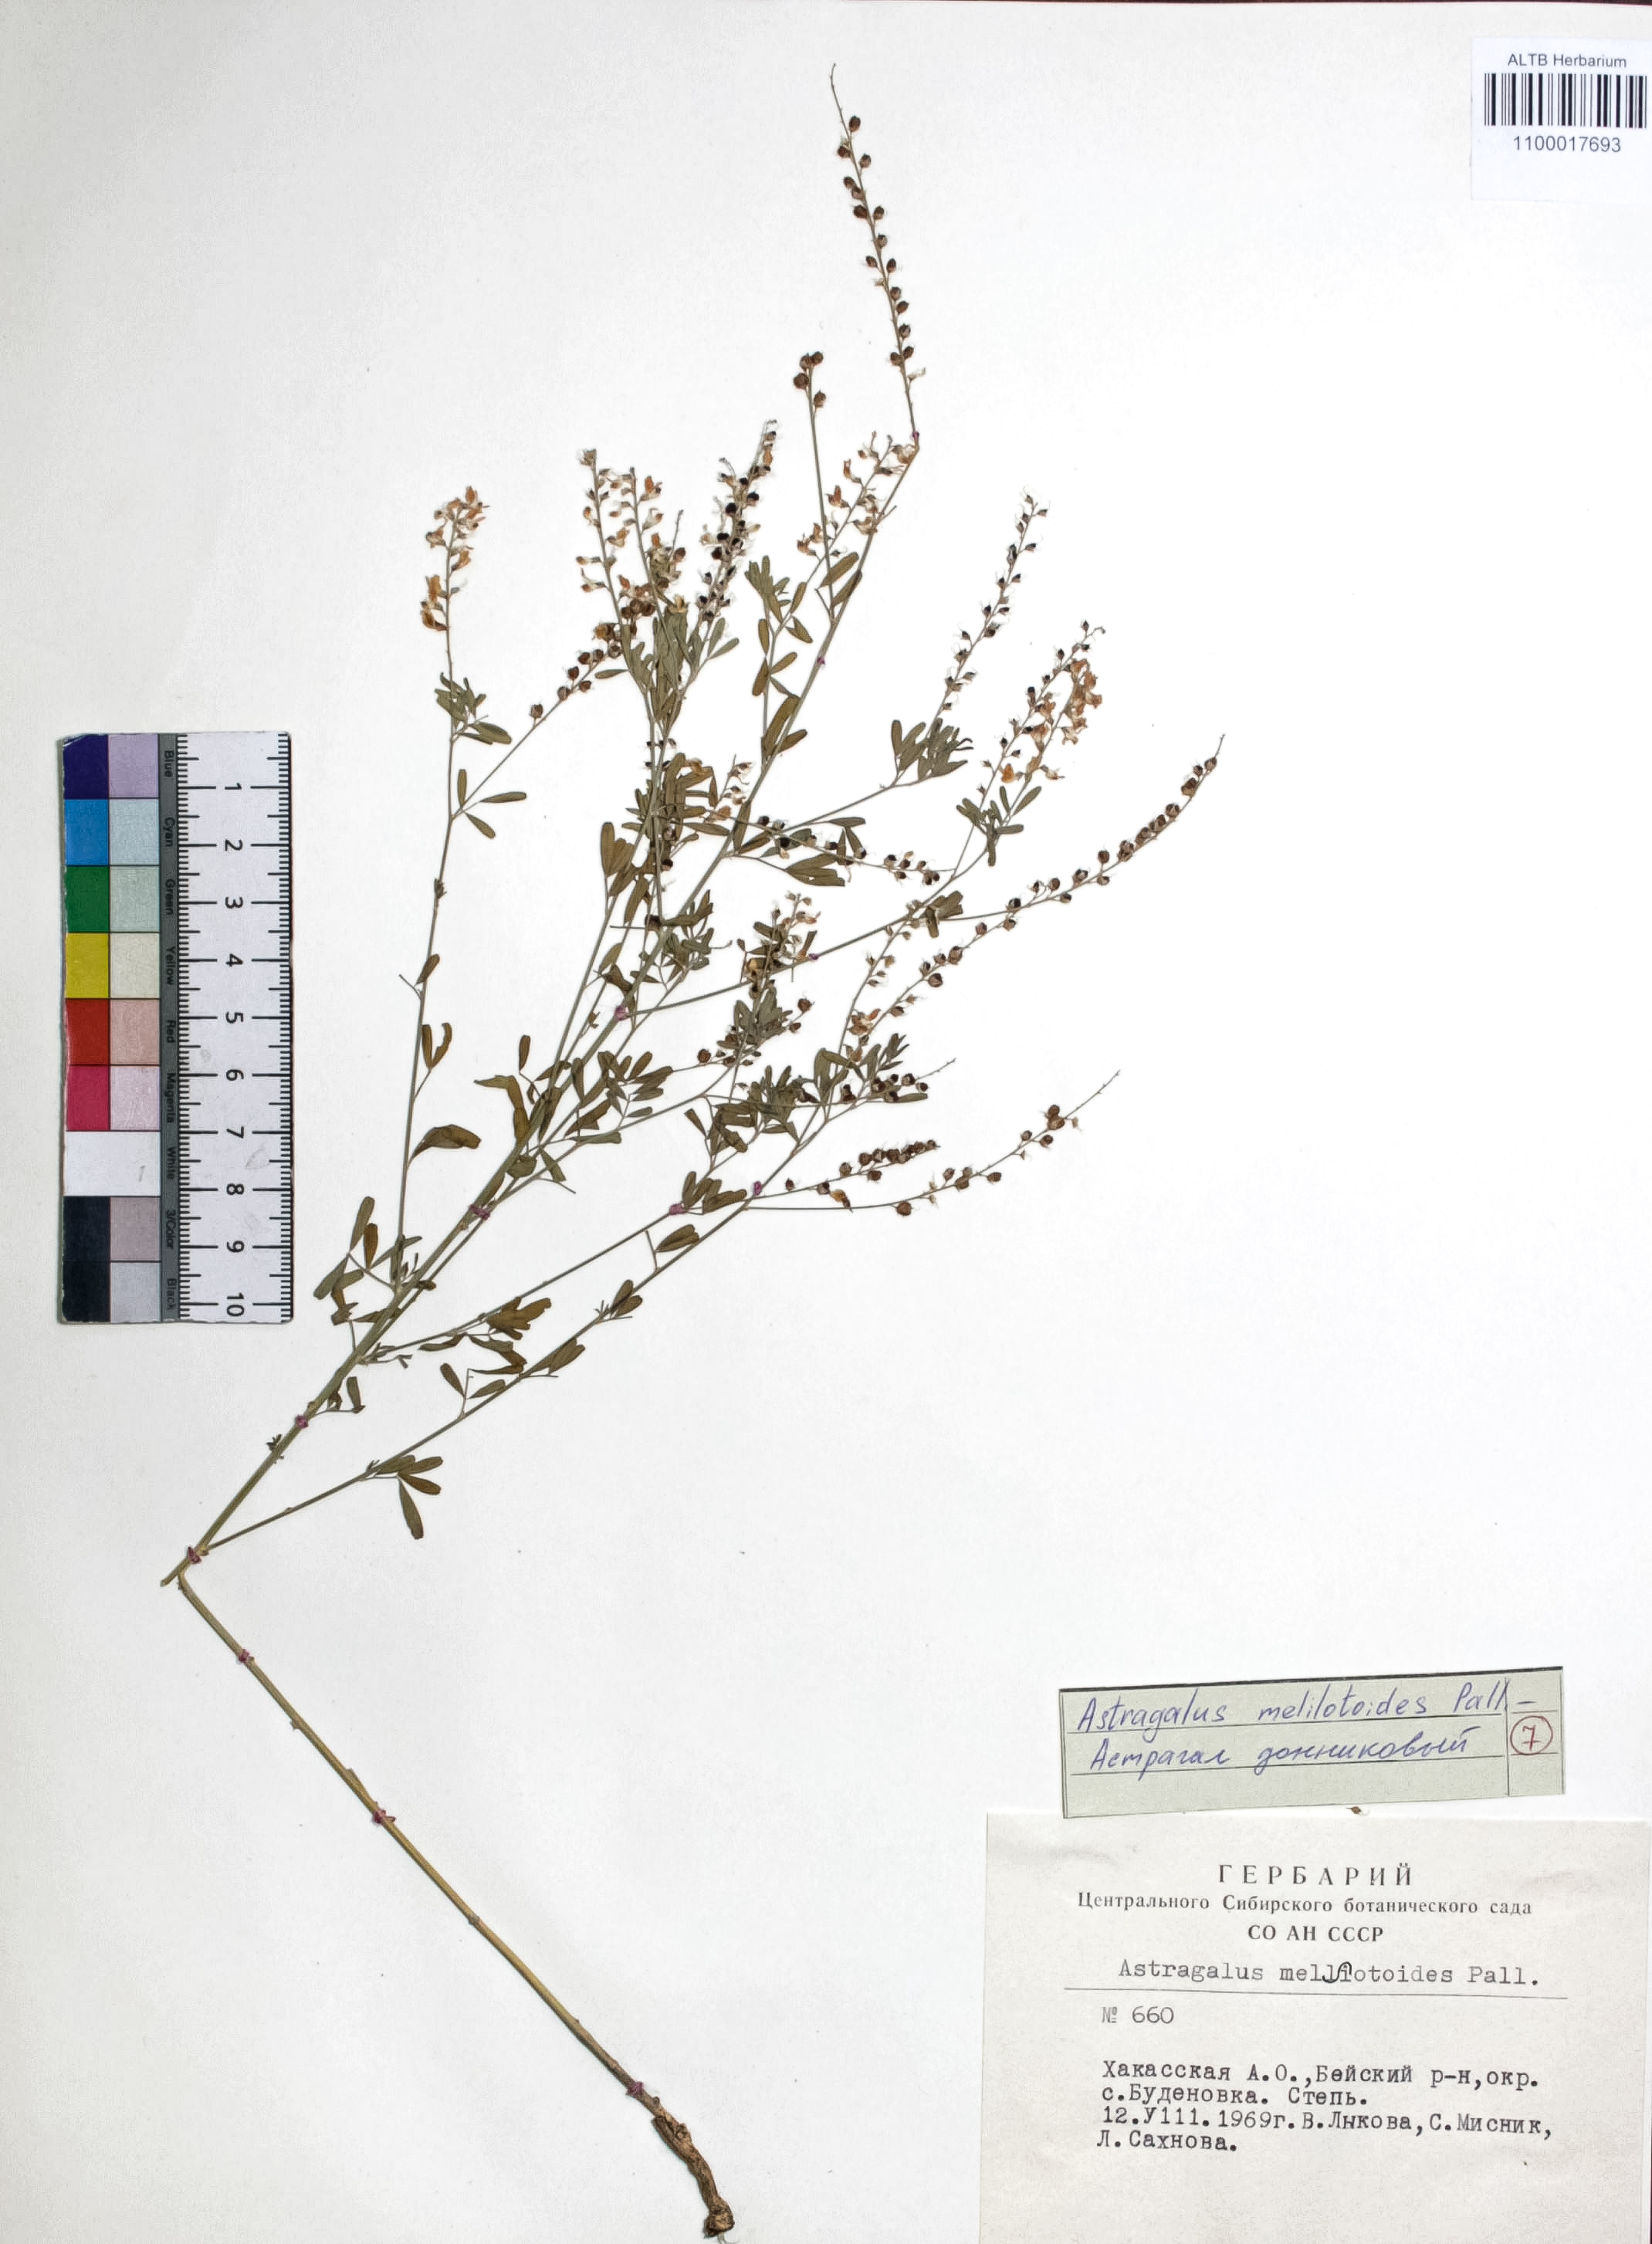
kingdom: Plantae
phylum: Tracheophyta
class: Magnoliopsida
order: Fabales
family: Fabaceae
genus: Astragalus
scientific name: Astragalus melilotoides
